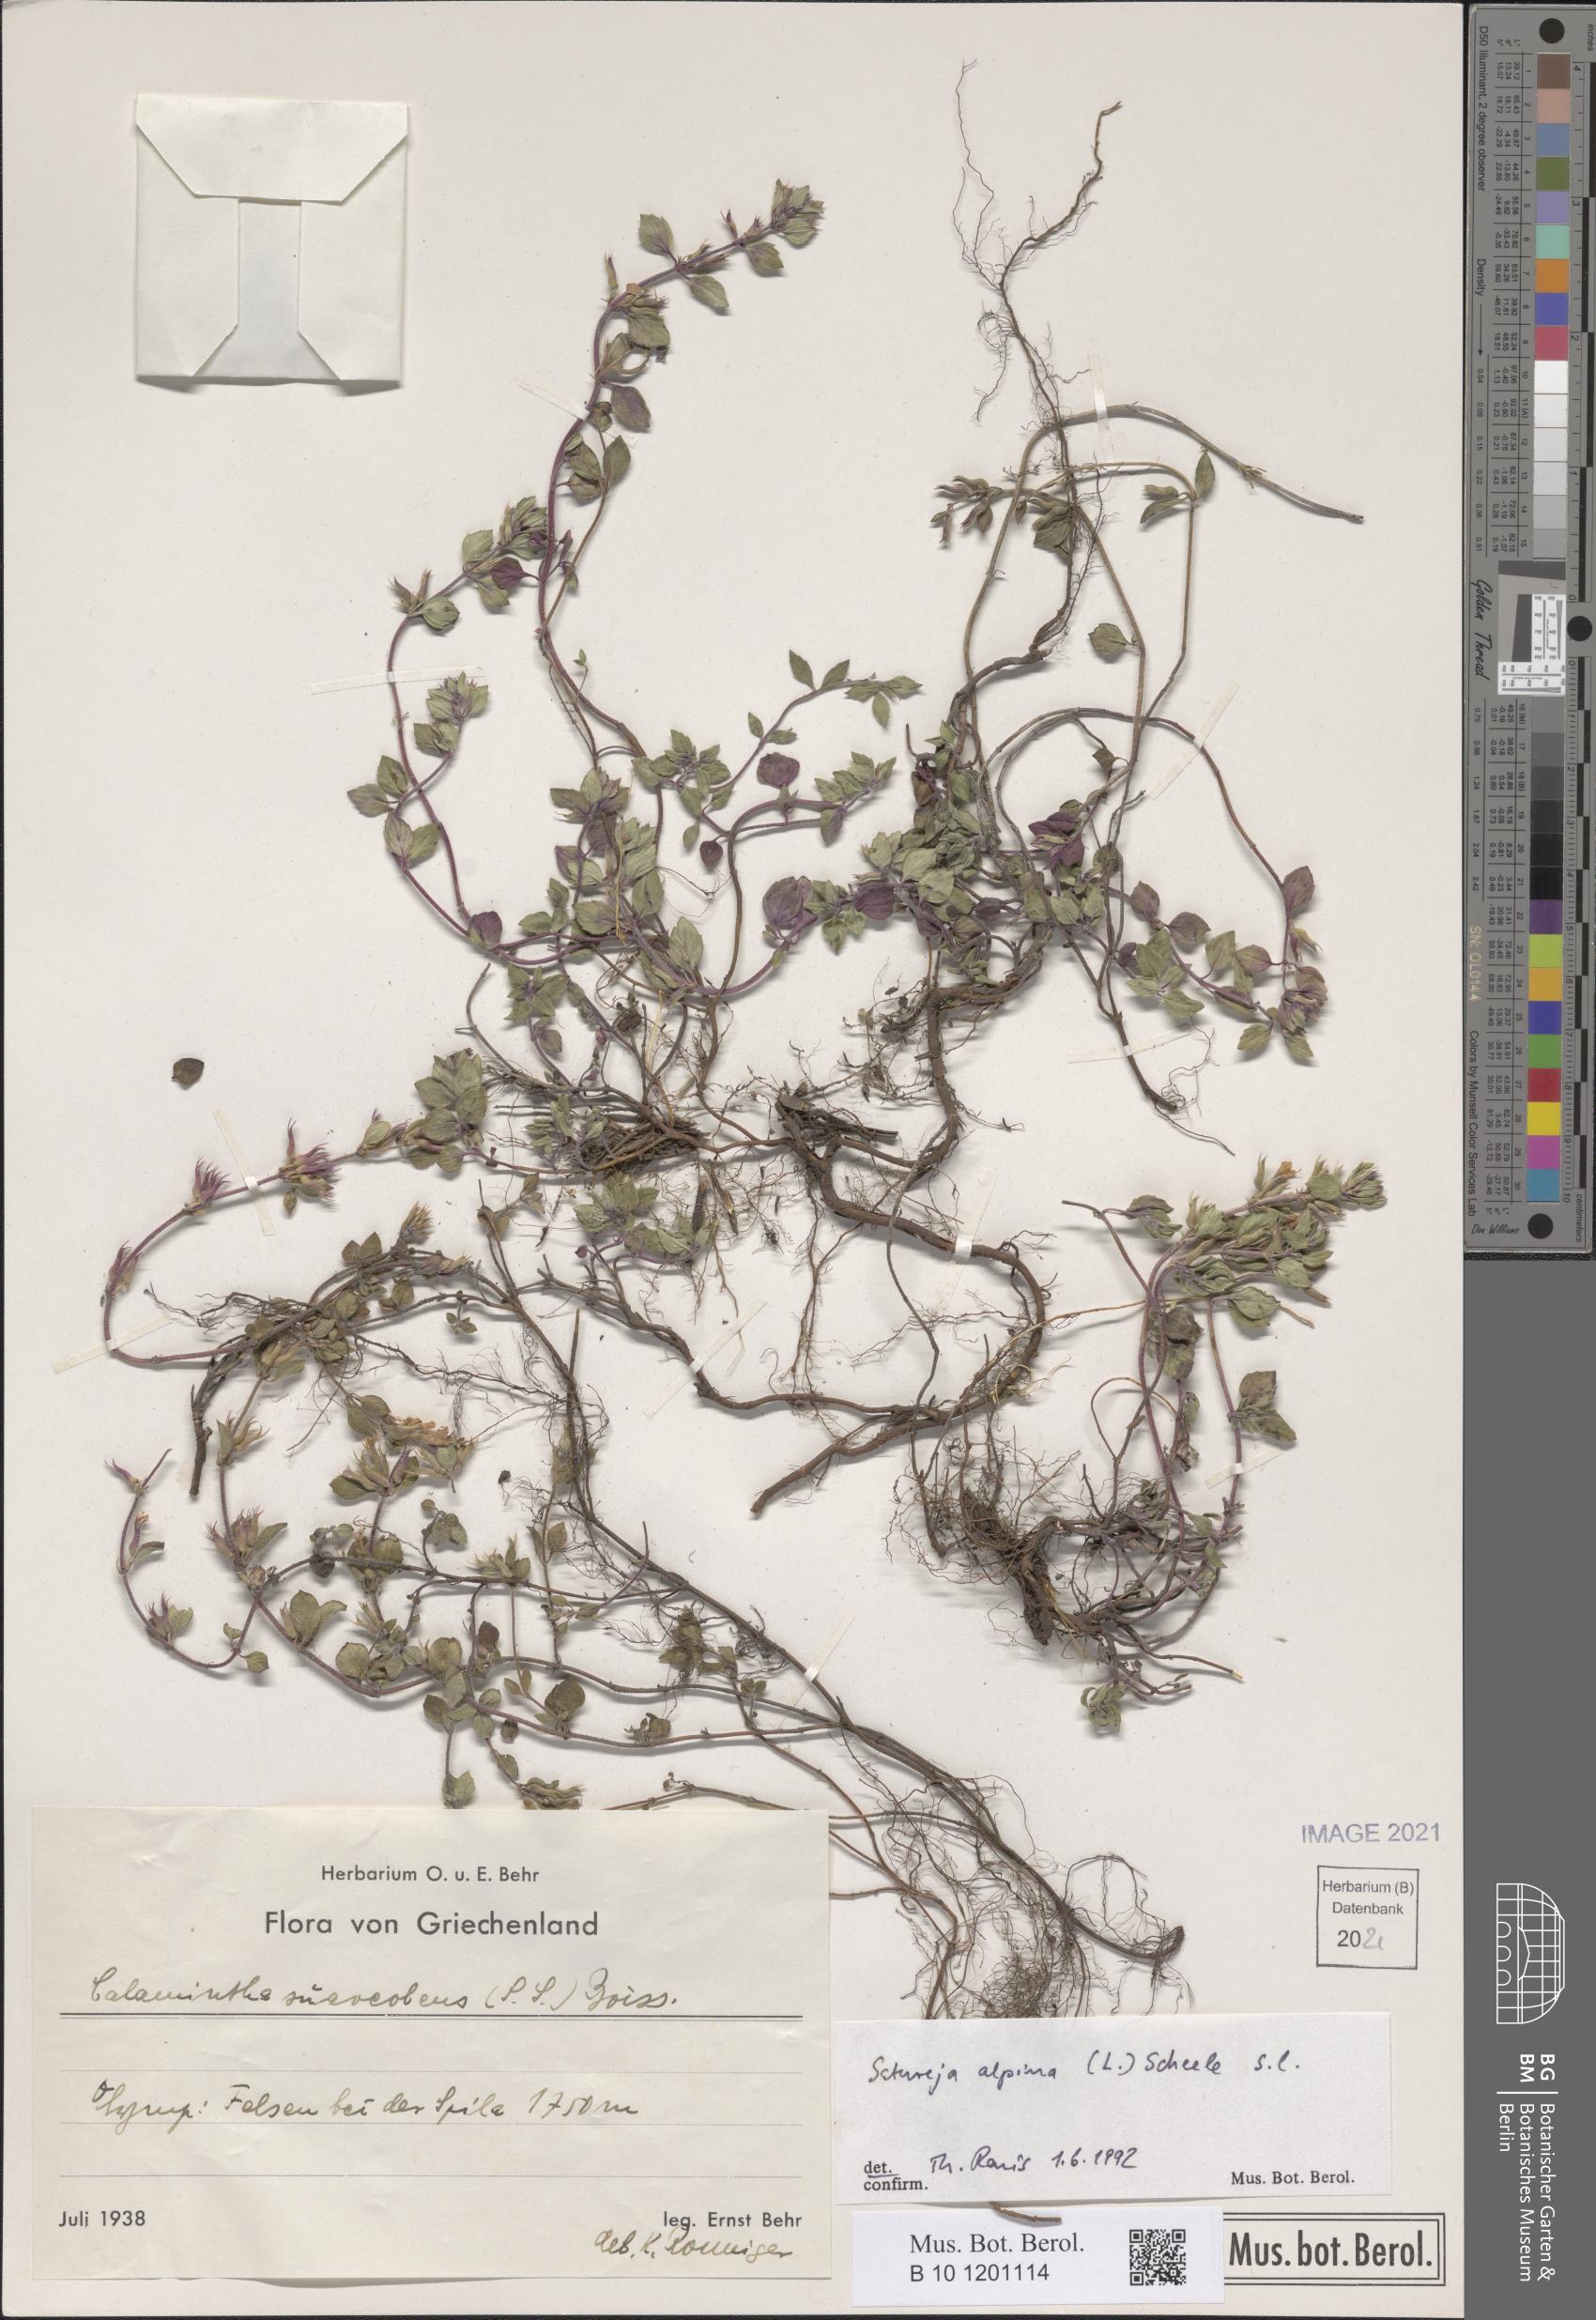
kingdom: Plantae
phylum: Tracheophyta
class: Magnoliopsida
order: Lamiales
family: Lamiaceae
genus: Clinopodium
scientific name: Clinopodium alpinum
